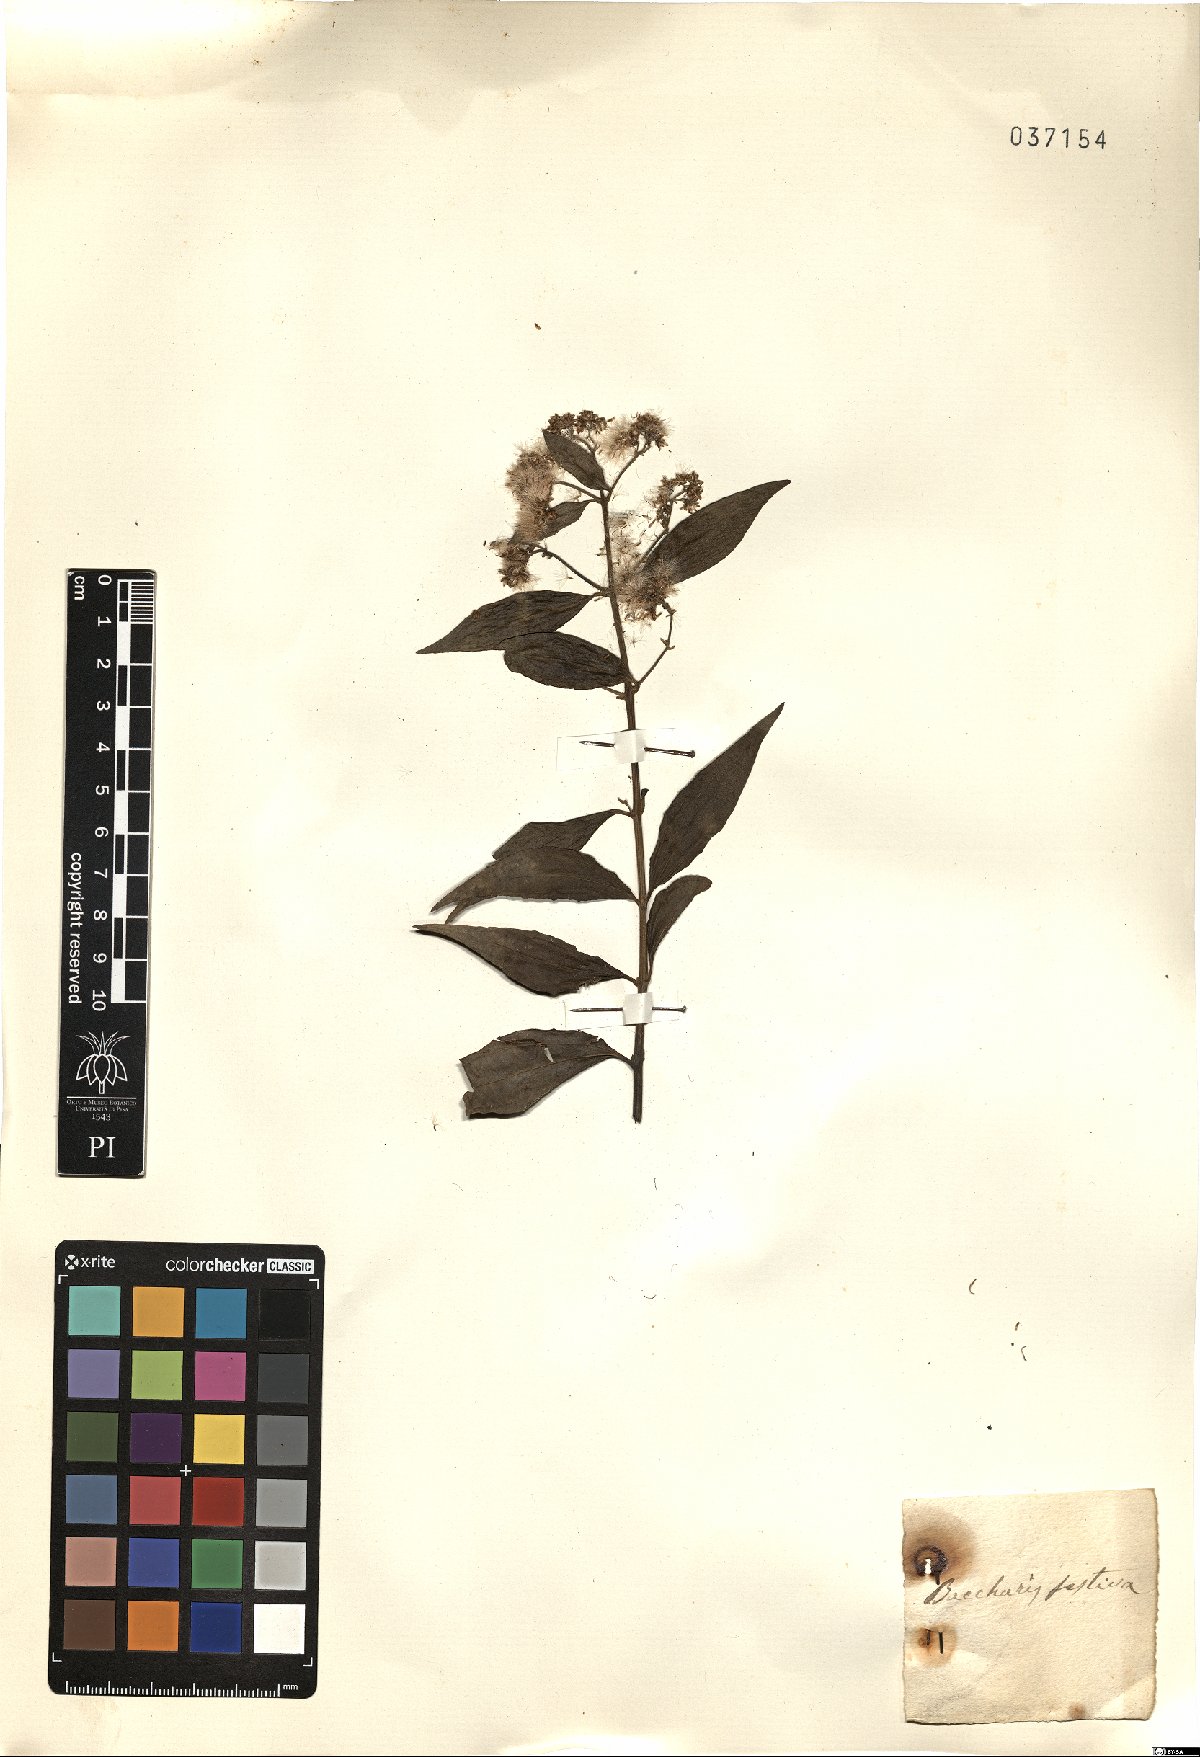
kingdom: Plantae
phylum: Tracheophyta
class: Magnoliopsida
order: Asterales
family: Asteraceae
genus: Baccharis
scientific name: Baccharis calvescens
